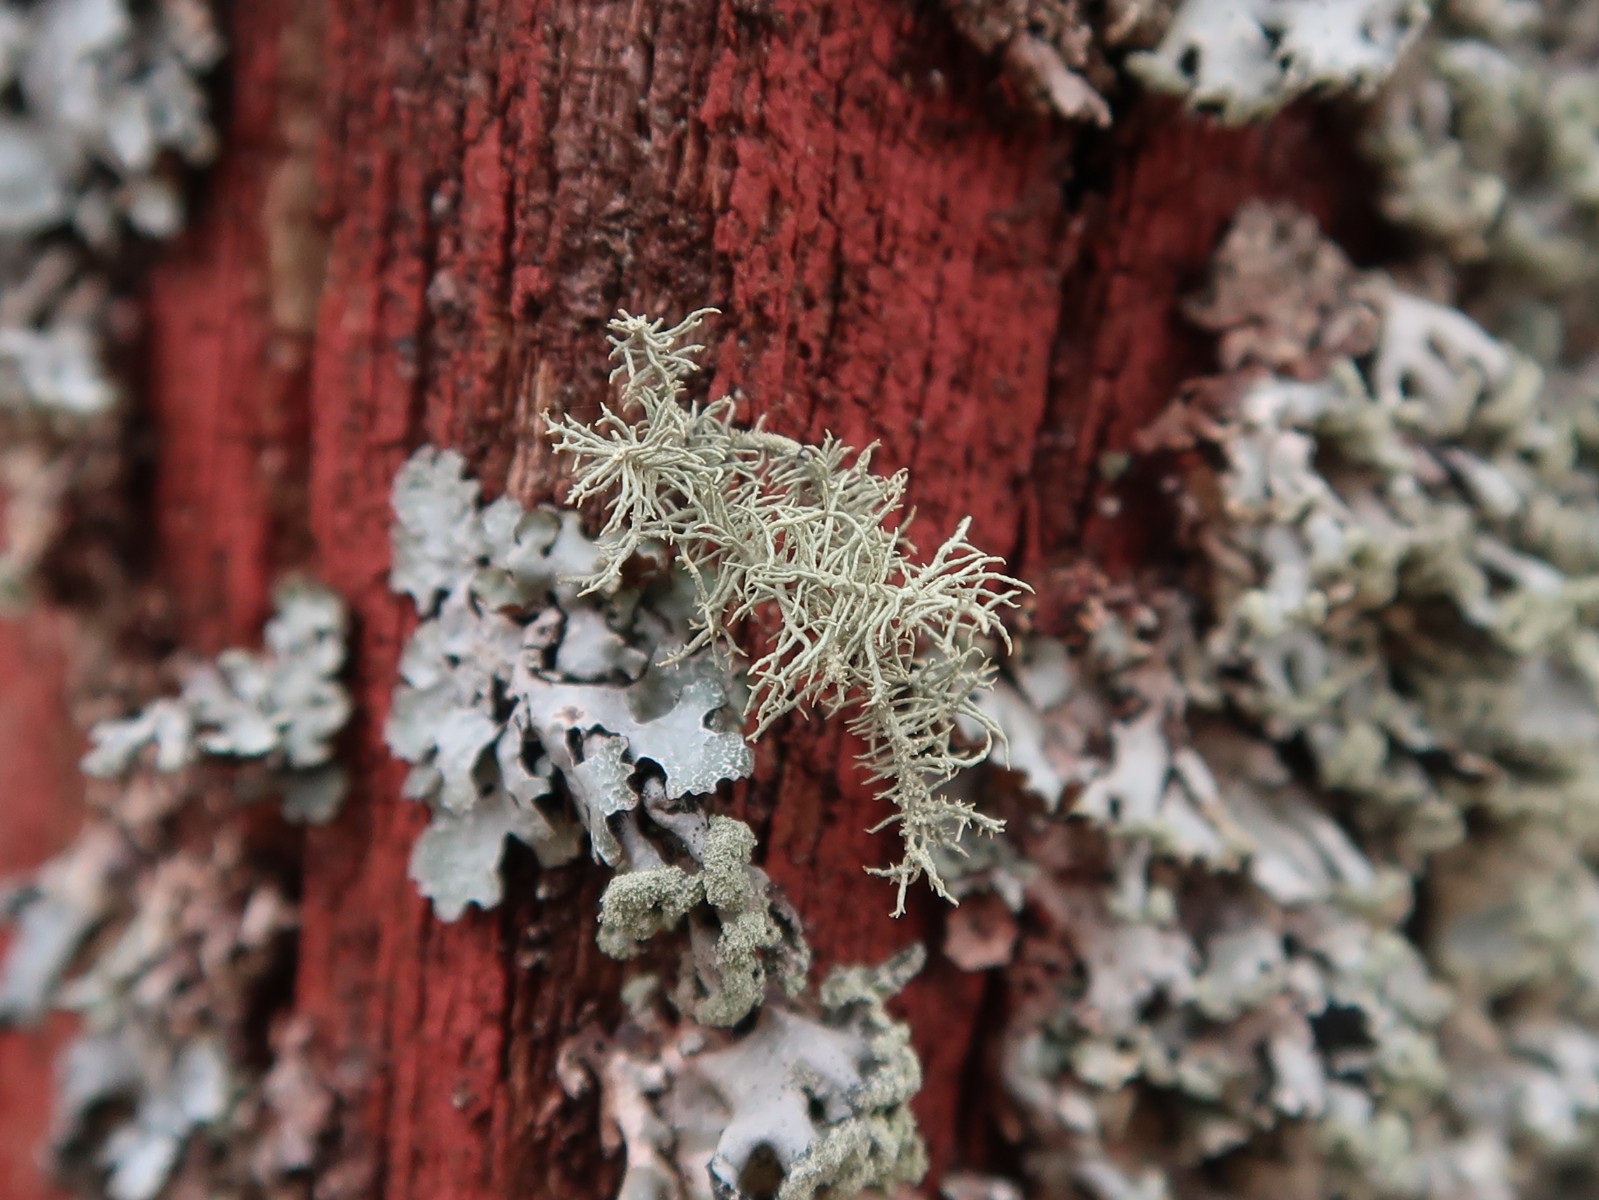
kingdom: Fungi
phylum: Ascomycota
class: Lecanoromycetes
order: Lecanorales
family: Parmeliaceae
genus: Usnea
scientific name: Usnea hirta
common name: liden skæglav
